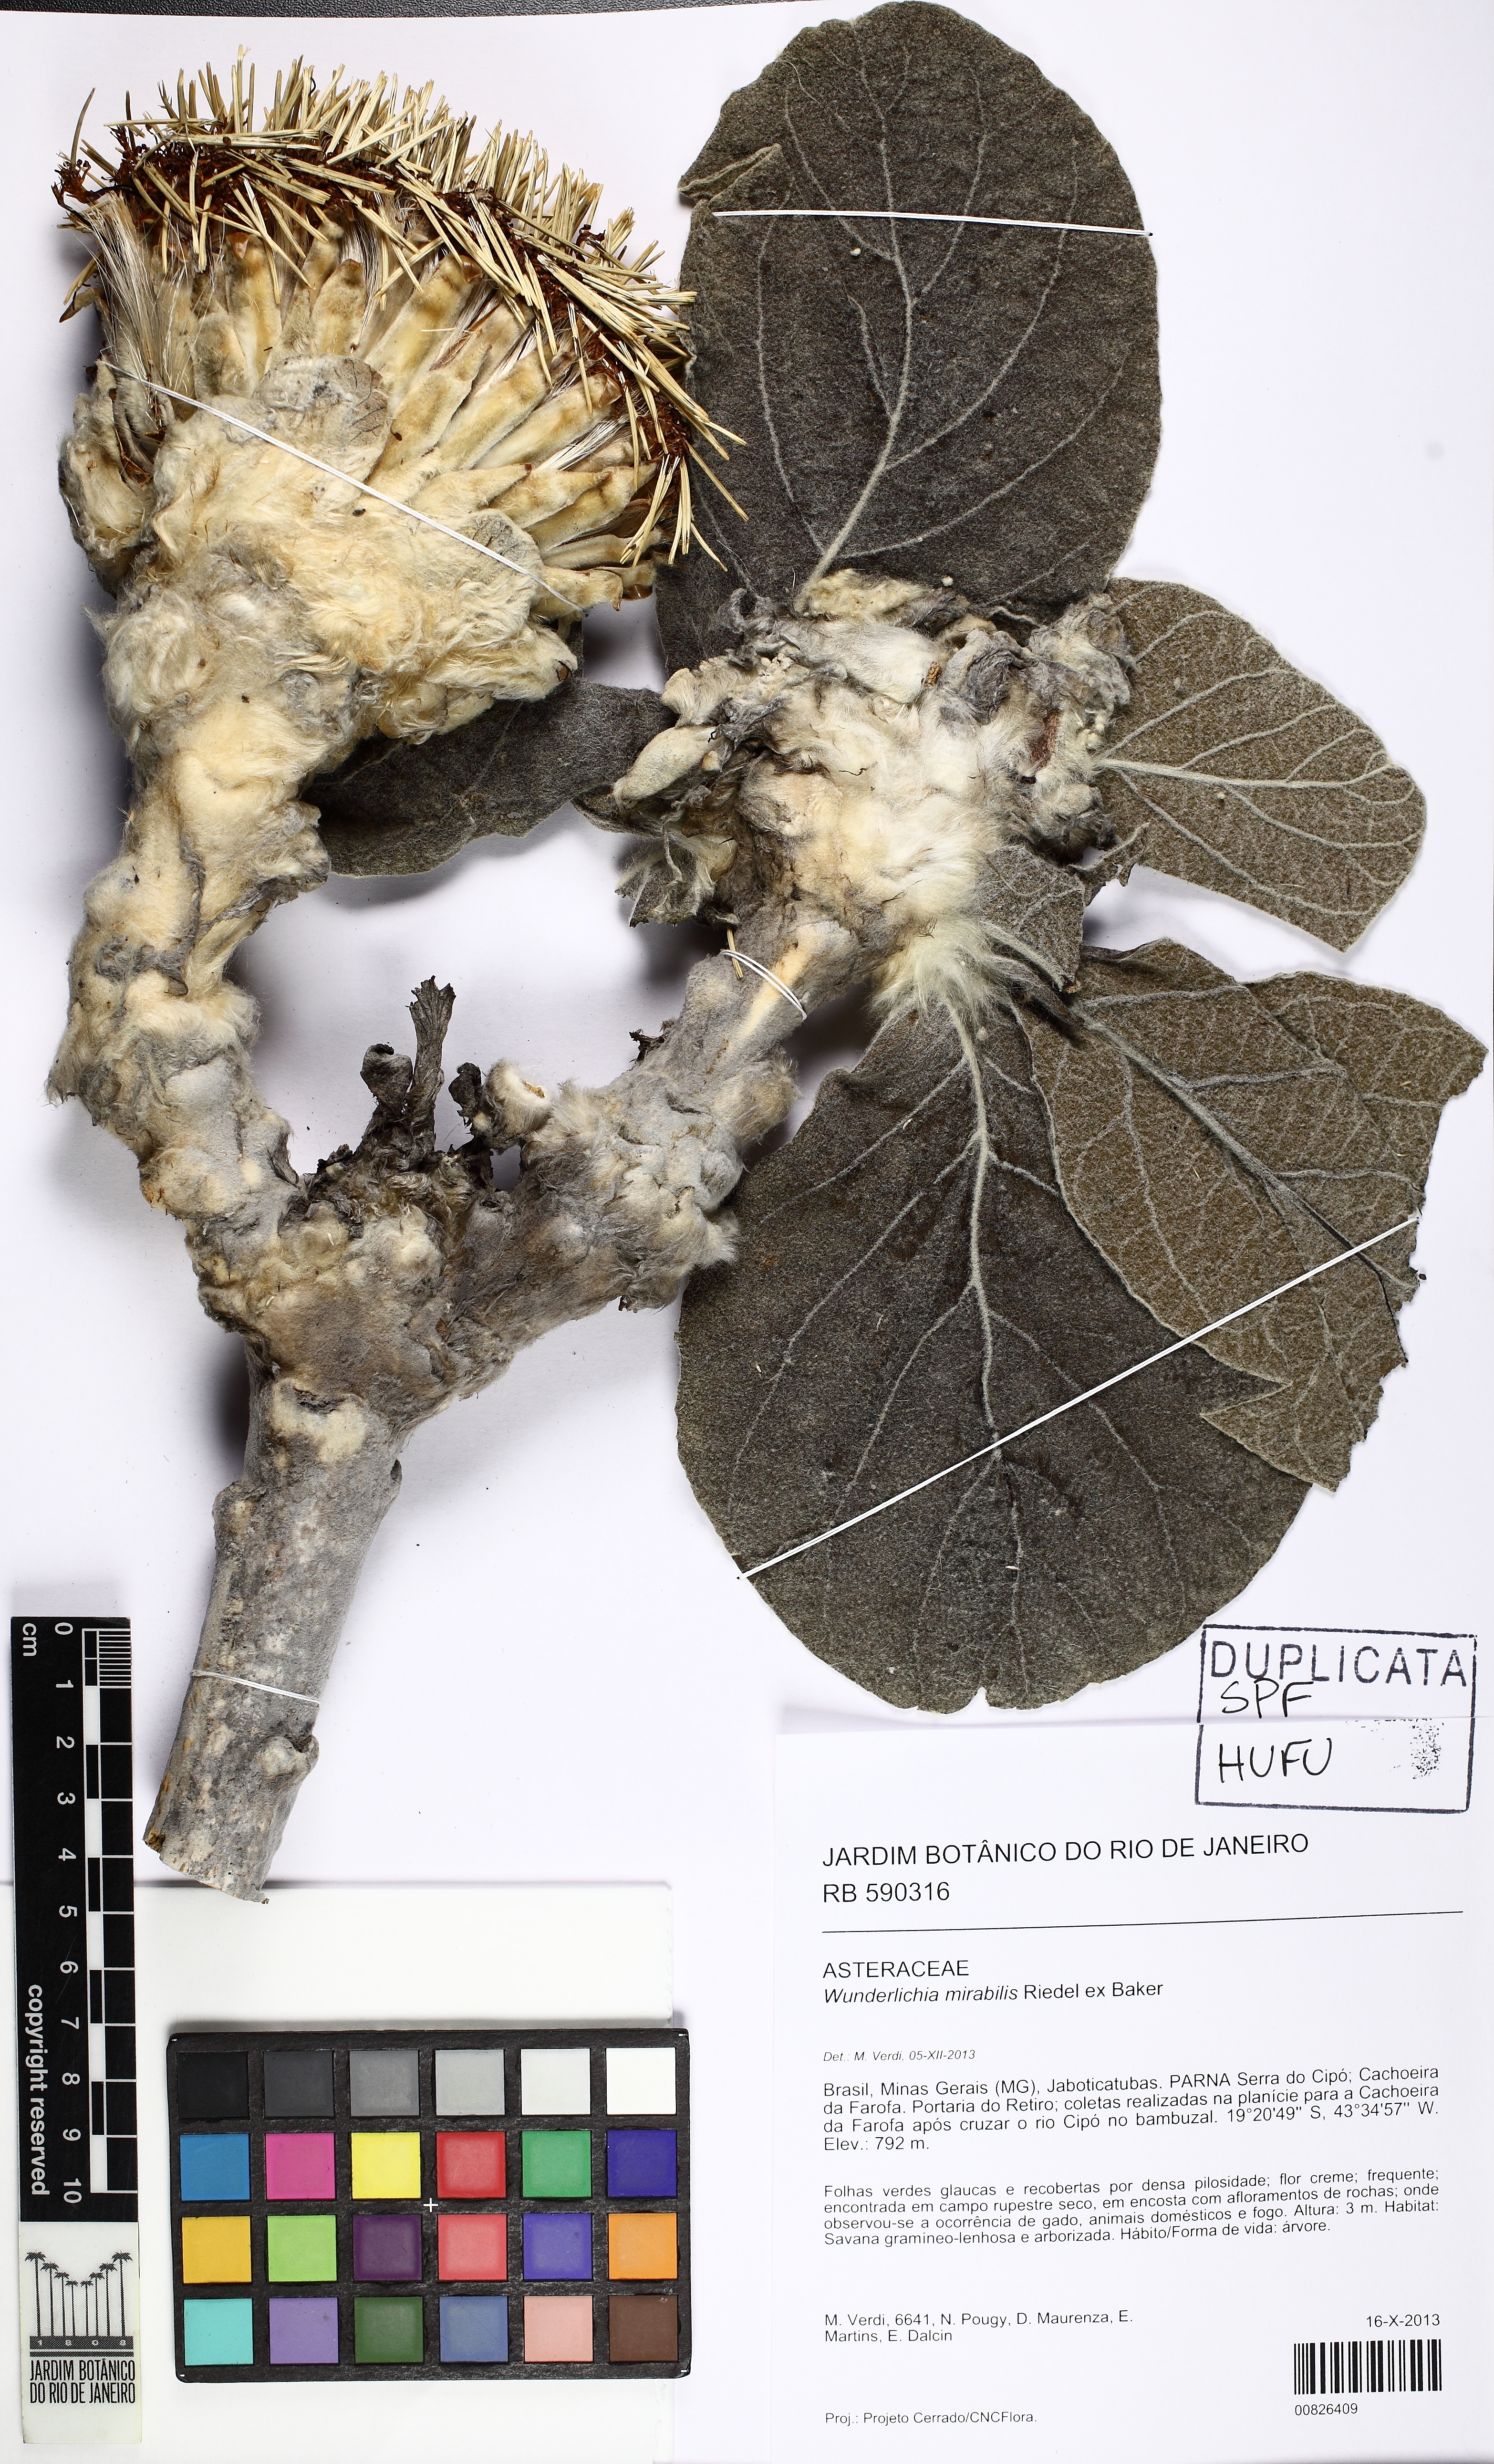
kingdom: Plantae
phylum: Tracheophyta
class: Magnoliopsida
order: Asterales
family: Asteraceae
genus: Wunderlichia
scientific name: Wunderlichia mirabilis
